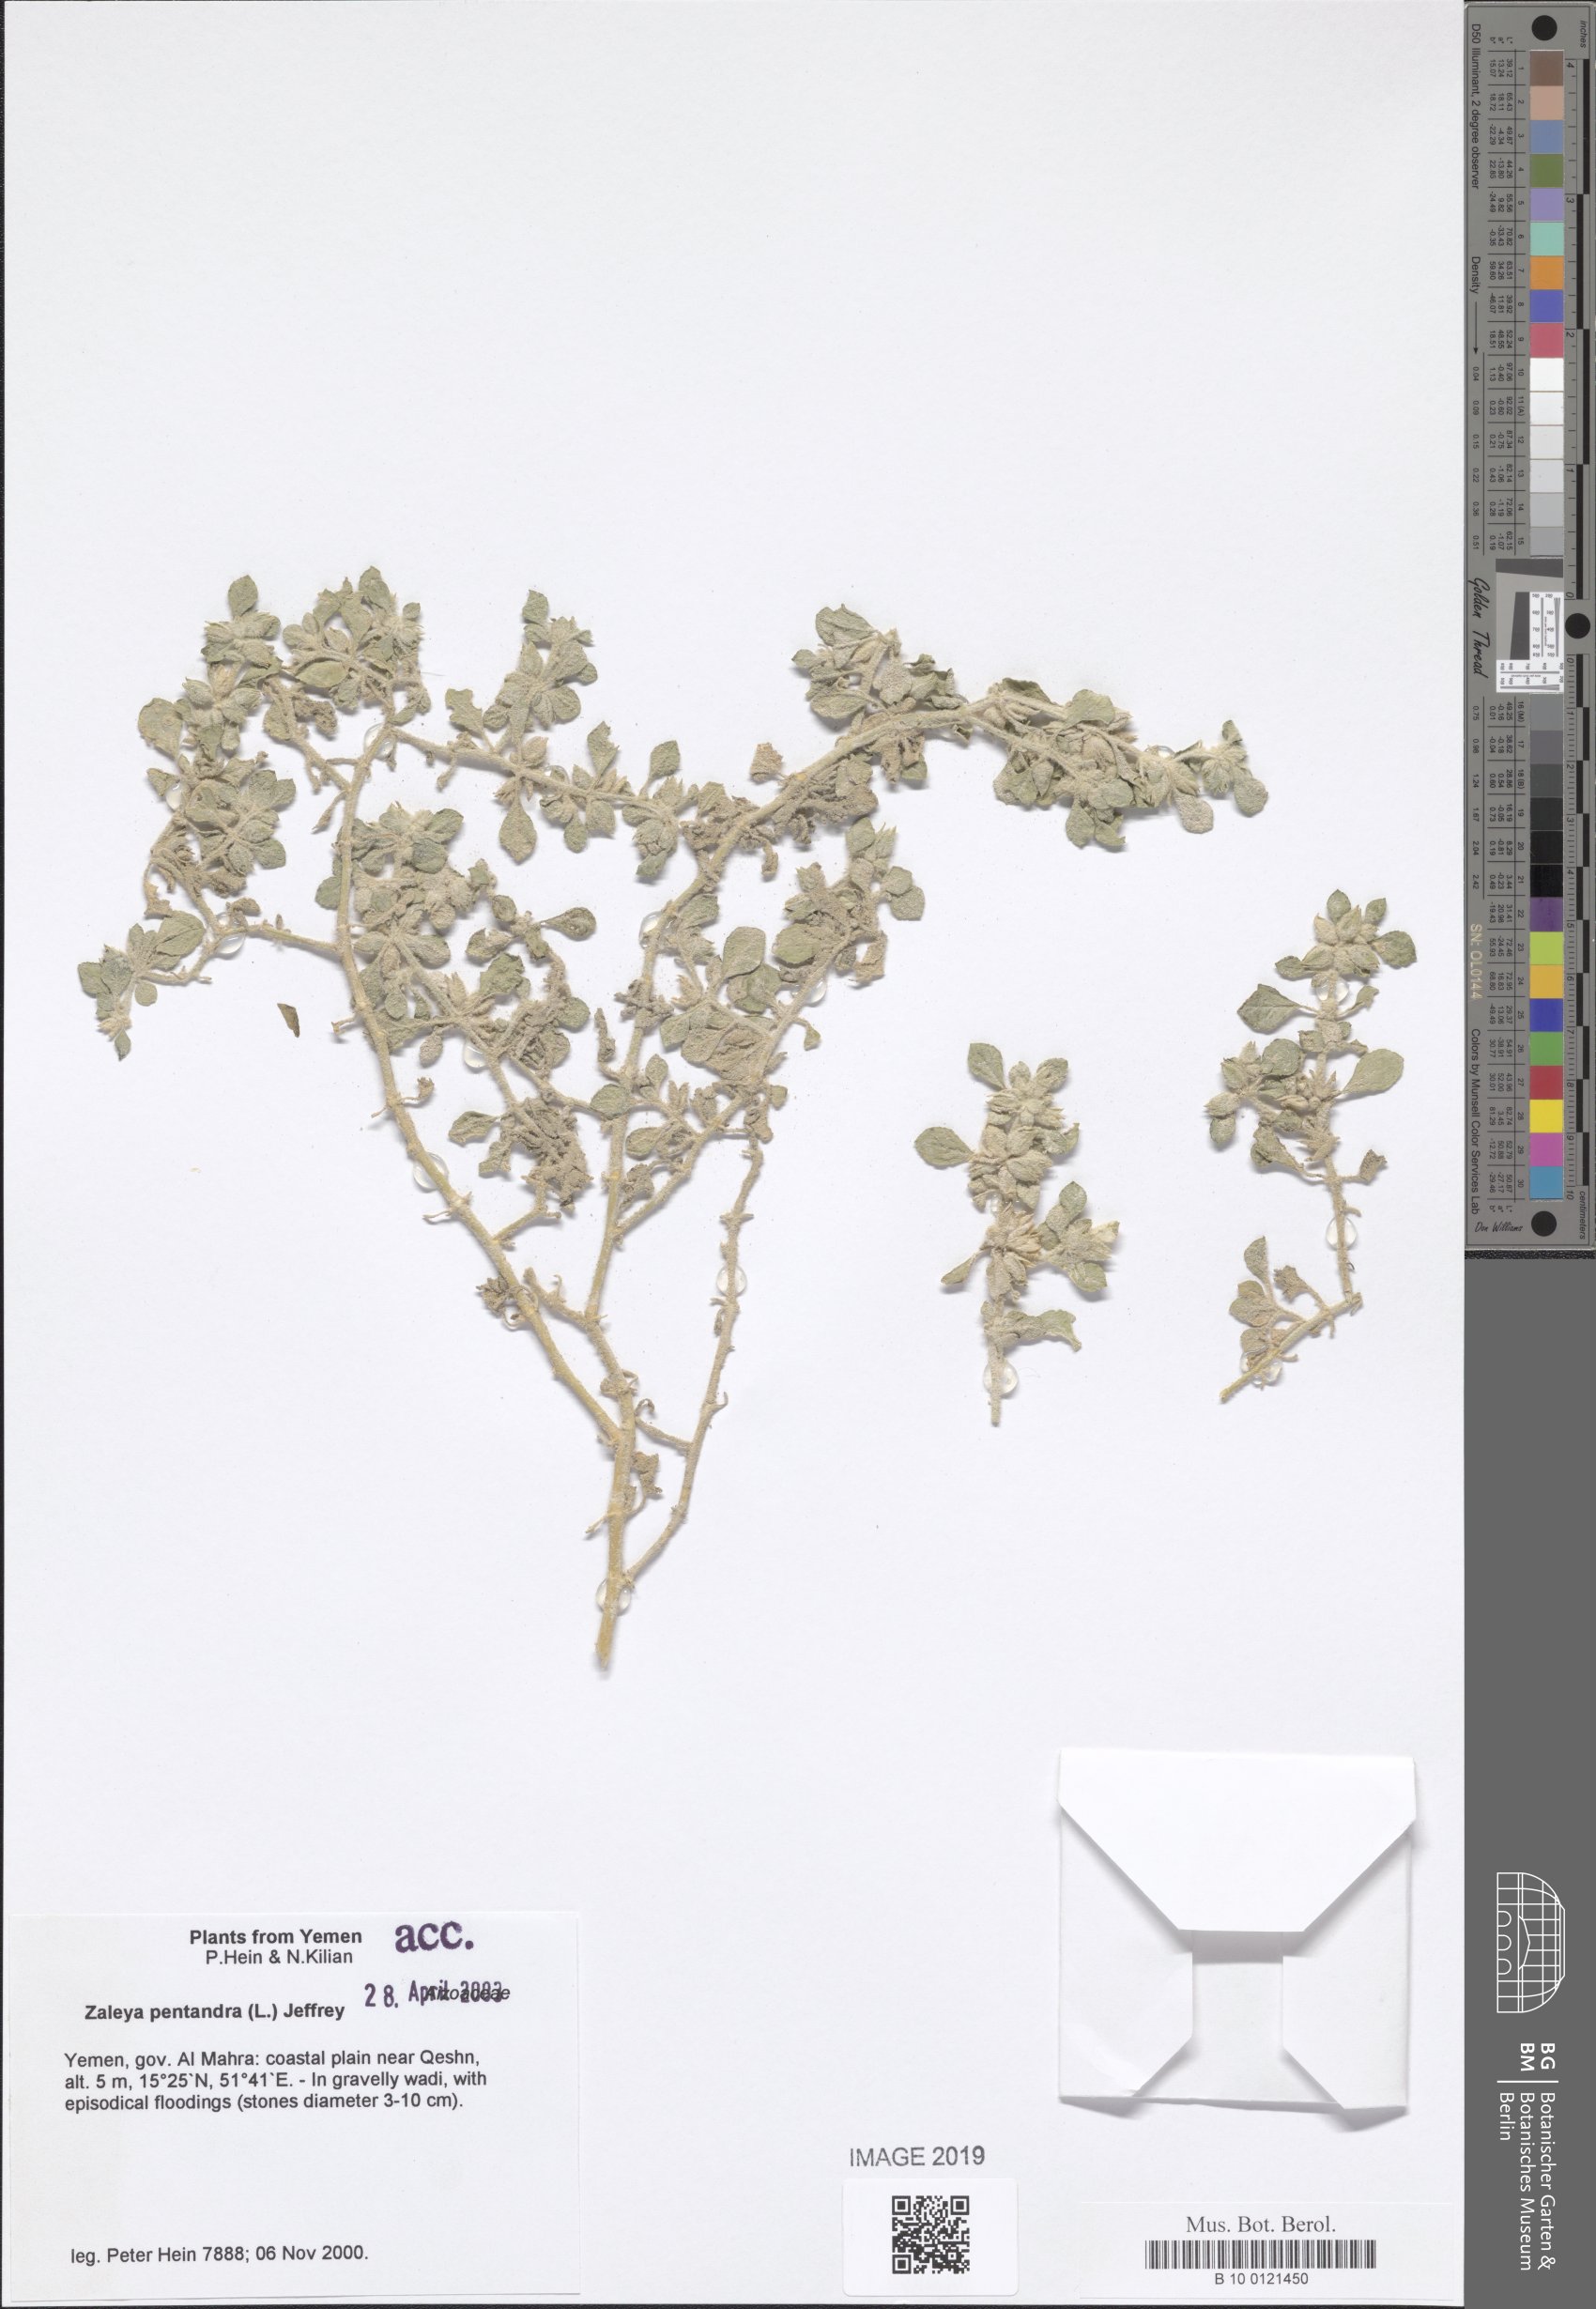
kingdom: Plantae
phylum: Tracheophyta
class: Magnoliopsida
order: Caryophyllales
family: Aizoaceae
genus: Zaleya
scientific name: Zaleya pentandra
